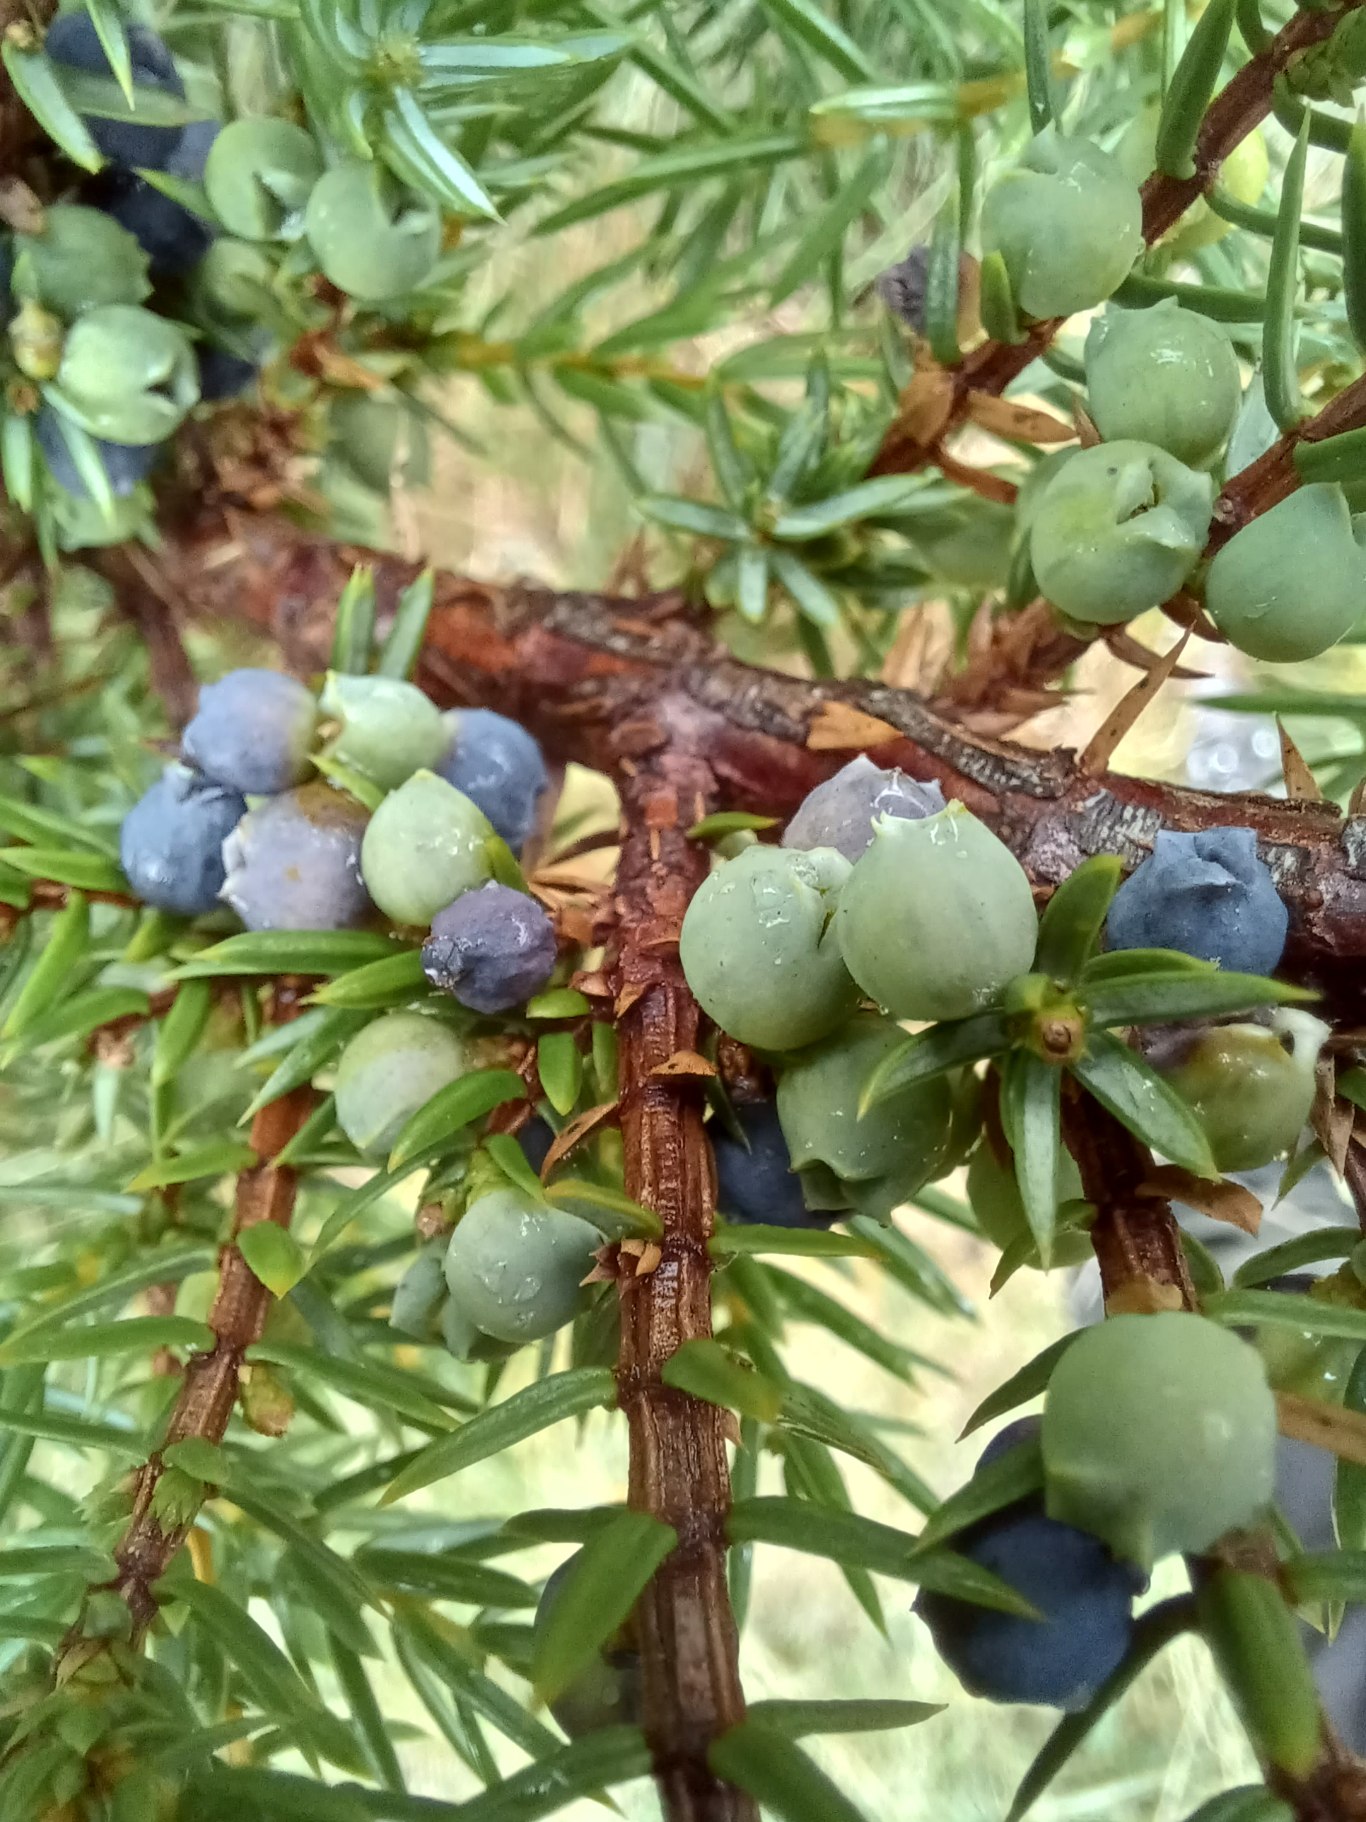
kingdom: Plantae
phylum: Tracheophyta
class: Pinopsida
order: Pinales
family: Cupressaceae
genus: Juniperus
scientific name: Juniperus communis
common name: Almindelig ene
